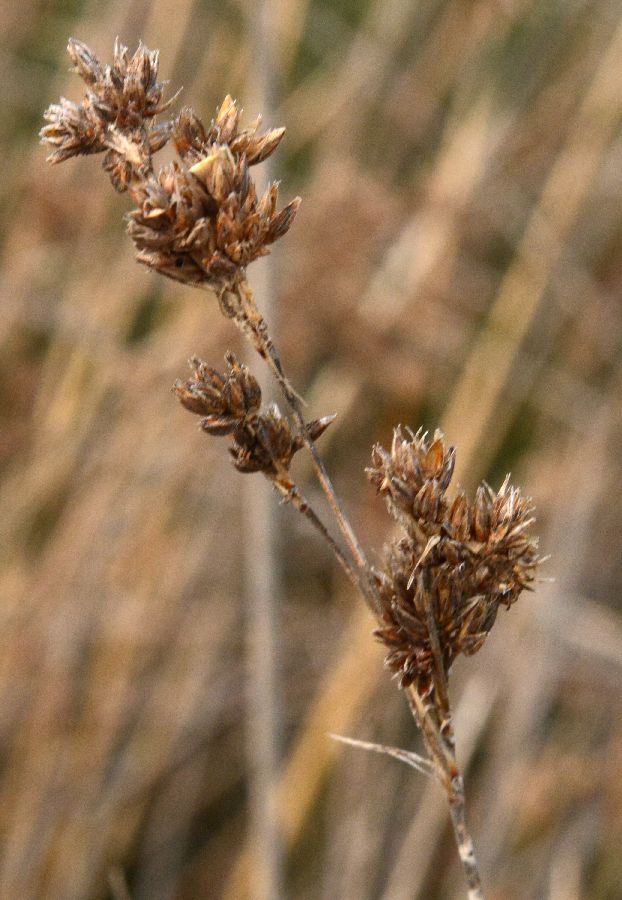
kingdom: Plantae
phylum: Tracheophyta
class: Liliopsida
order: Poales
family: Juncaceae
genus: Juncus
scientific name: Juncus acutus
